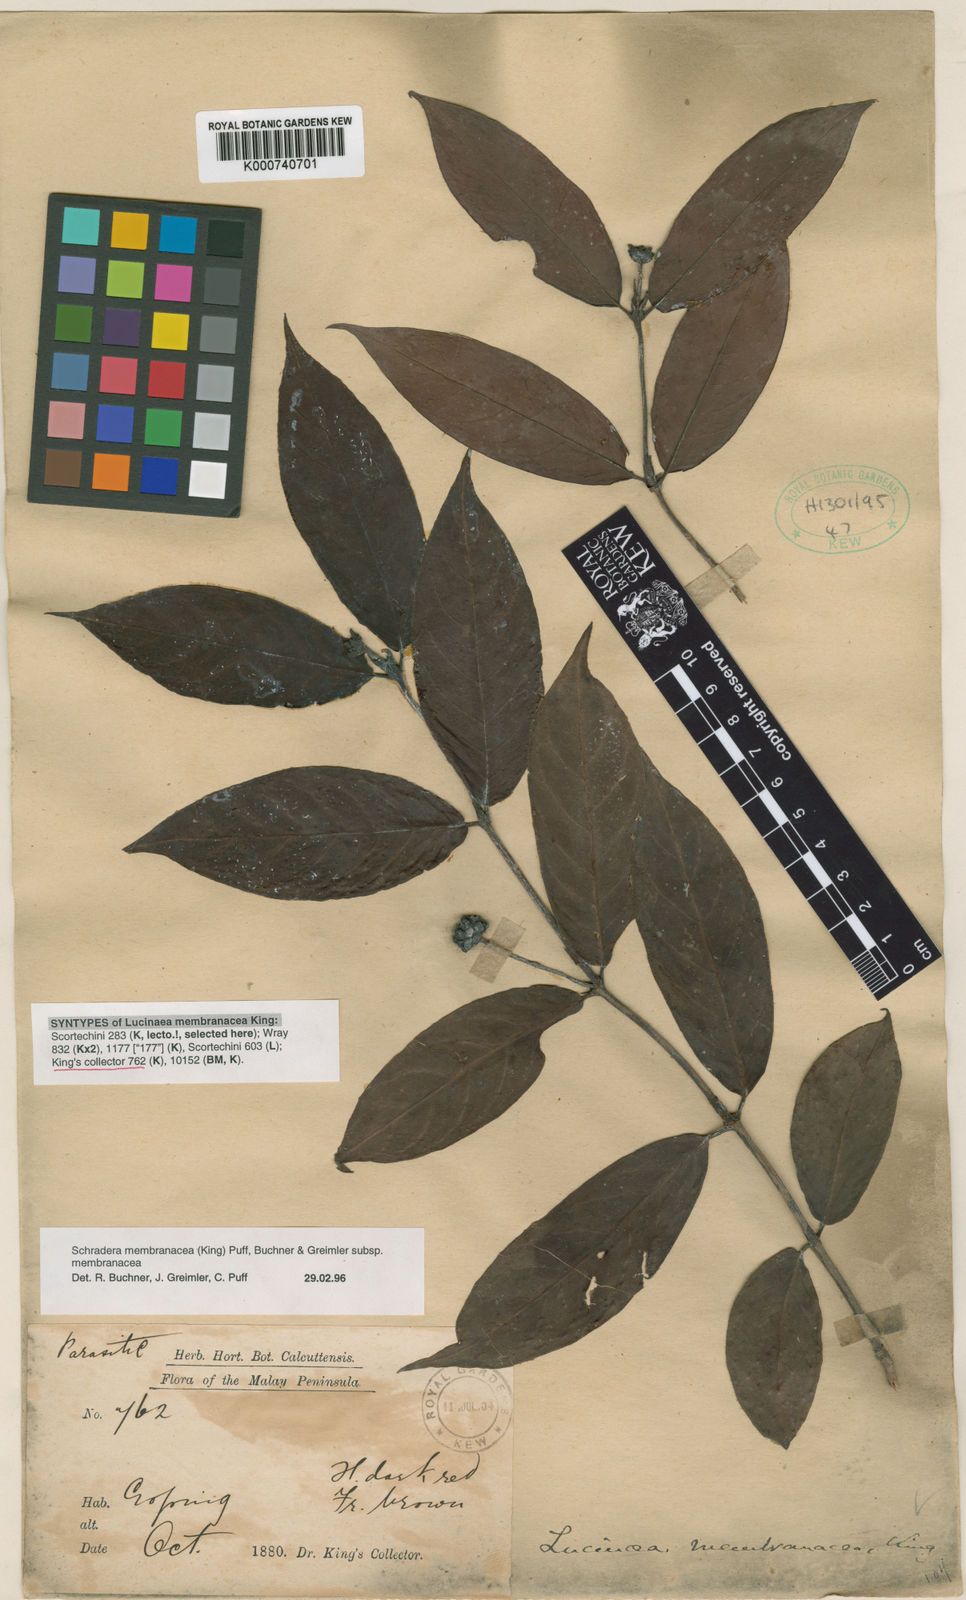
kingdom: Plantae
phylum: Tracheophyta
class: Magnoliopsida
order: Gentianales
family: Rubiaceae
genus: Schradera
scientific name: Schradera membranacea
